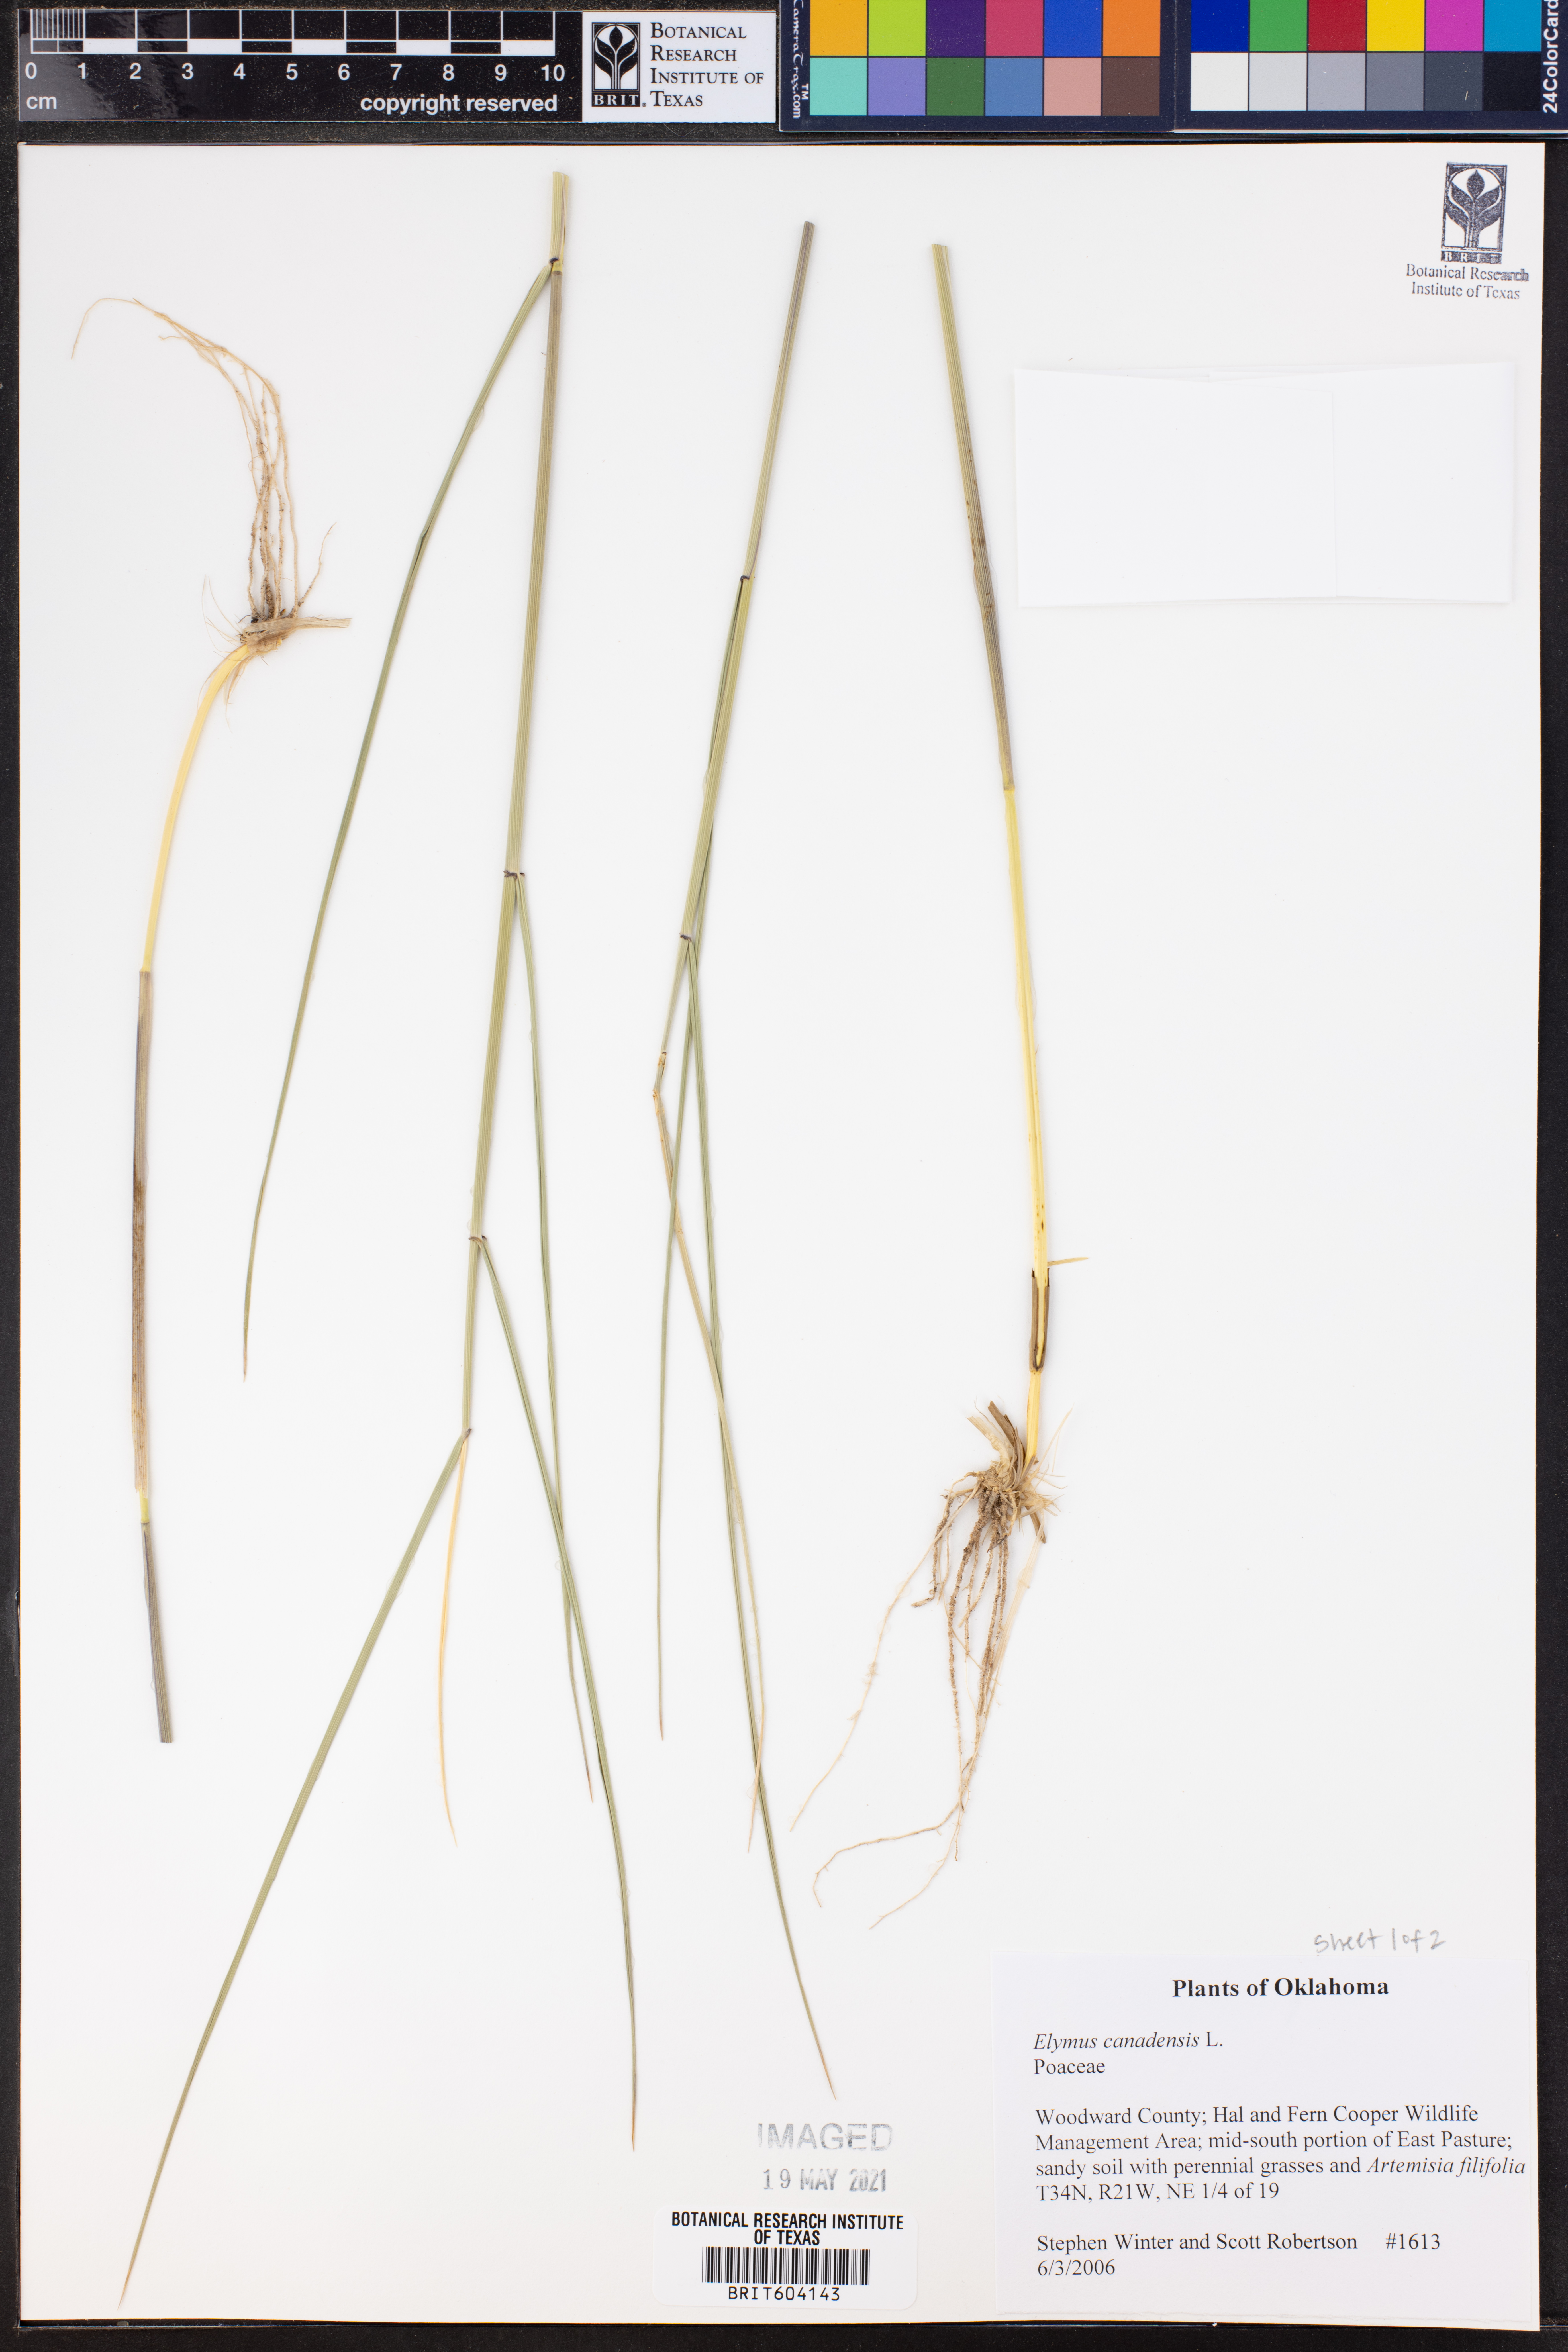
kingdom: Plantae
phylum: Tracheophyta
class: Liliopsida
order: Poales
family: Poaceae
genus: Elymus
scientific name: Elymus canadensis
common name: Canada wild rye
